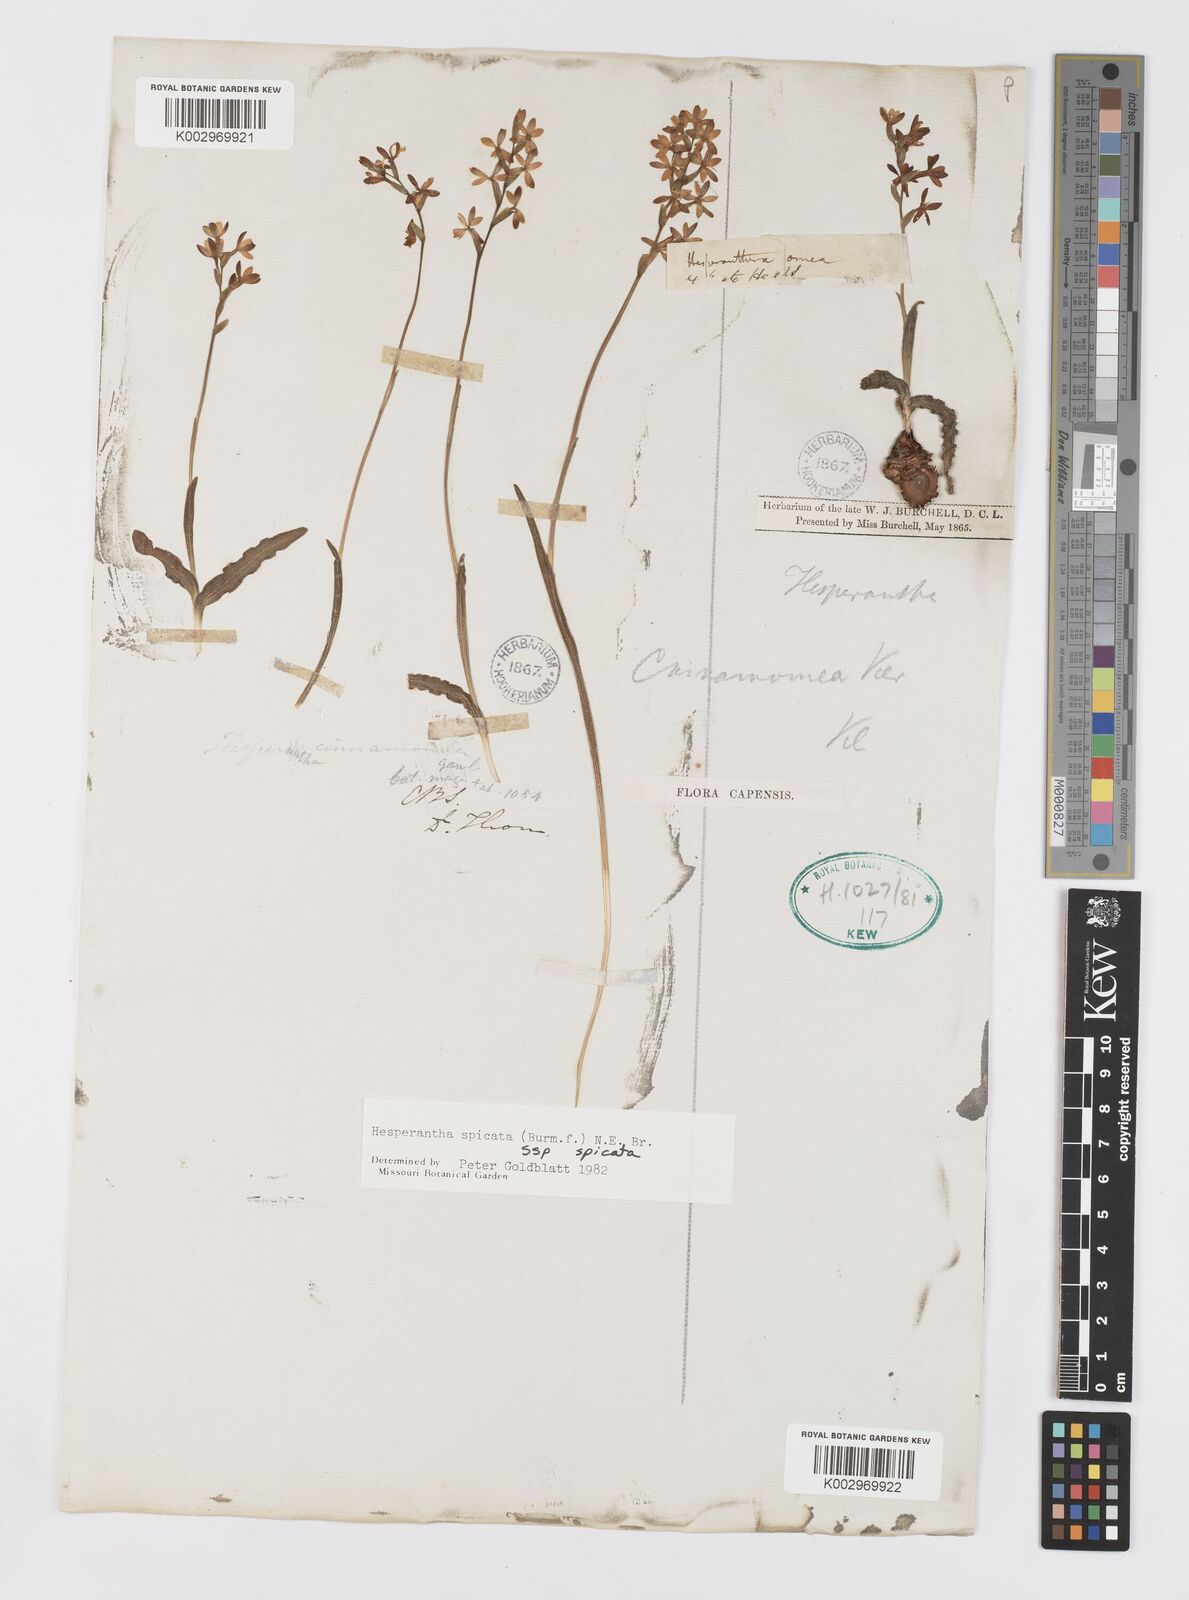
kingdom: Plantae
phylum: Tracheophyta
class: Liliopsida
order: Asparagales
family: Iridaceae
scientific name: Iridaceae
